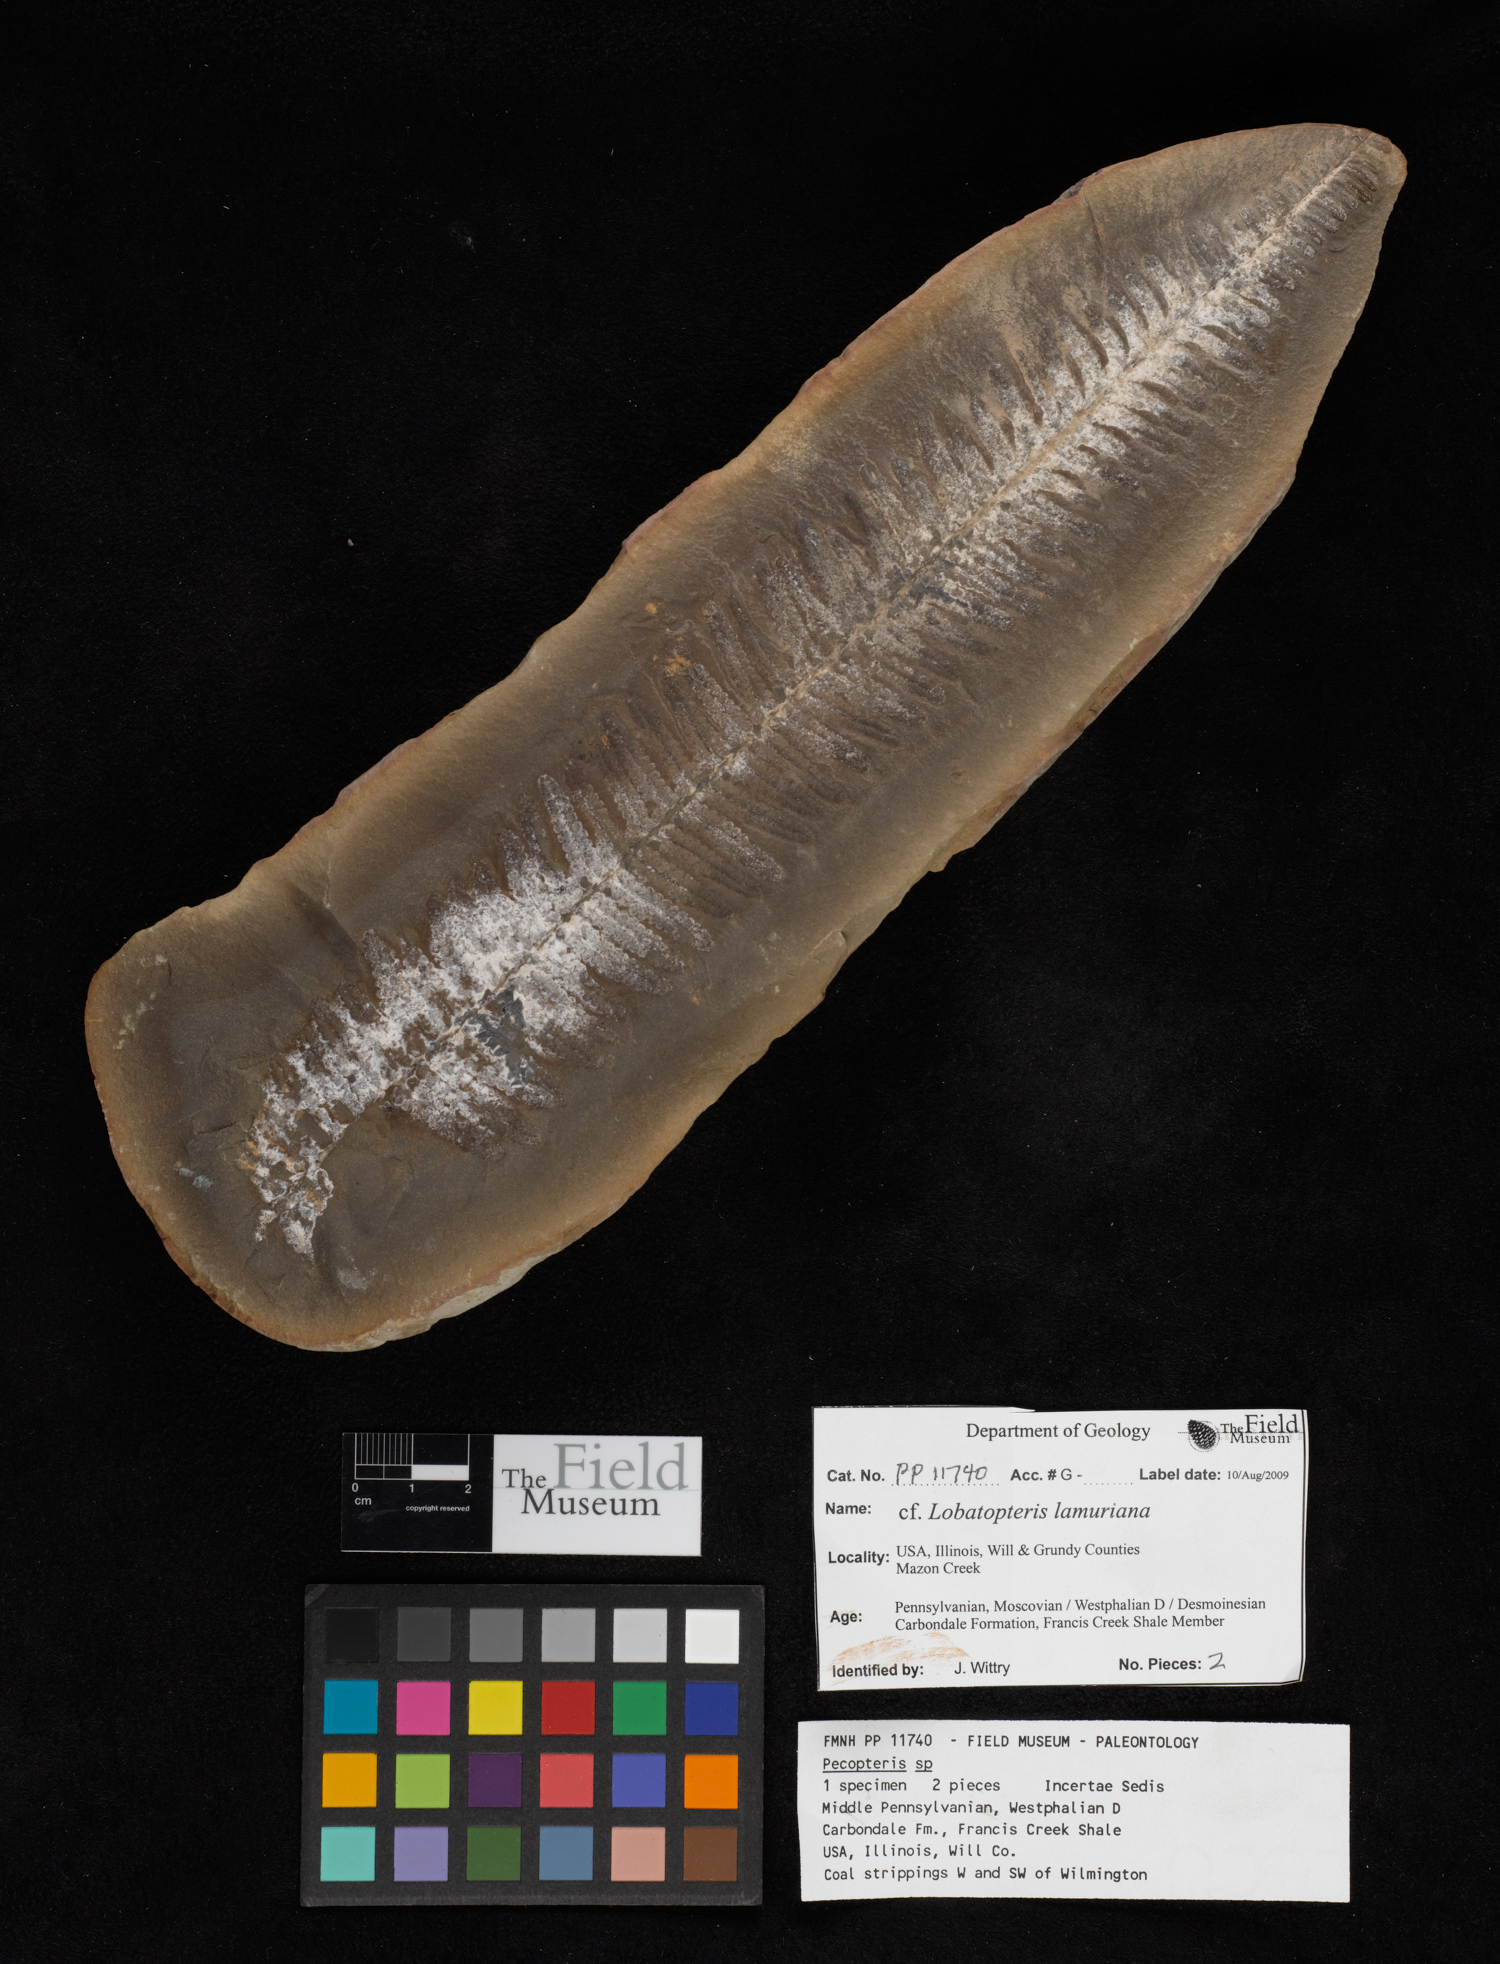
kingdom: Plantae
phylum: Tracheophyta
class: Polypodiopsida
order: Marattiales
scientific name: Marattiales
